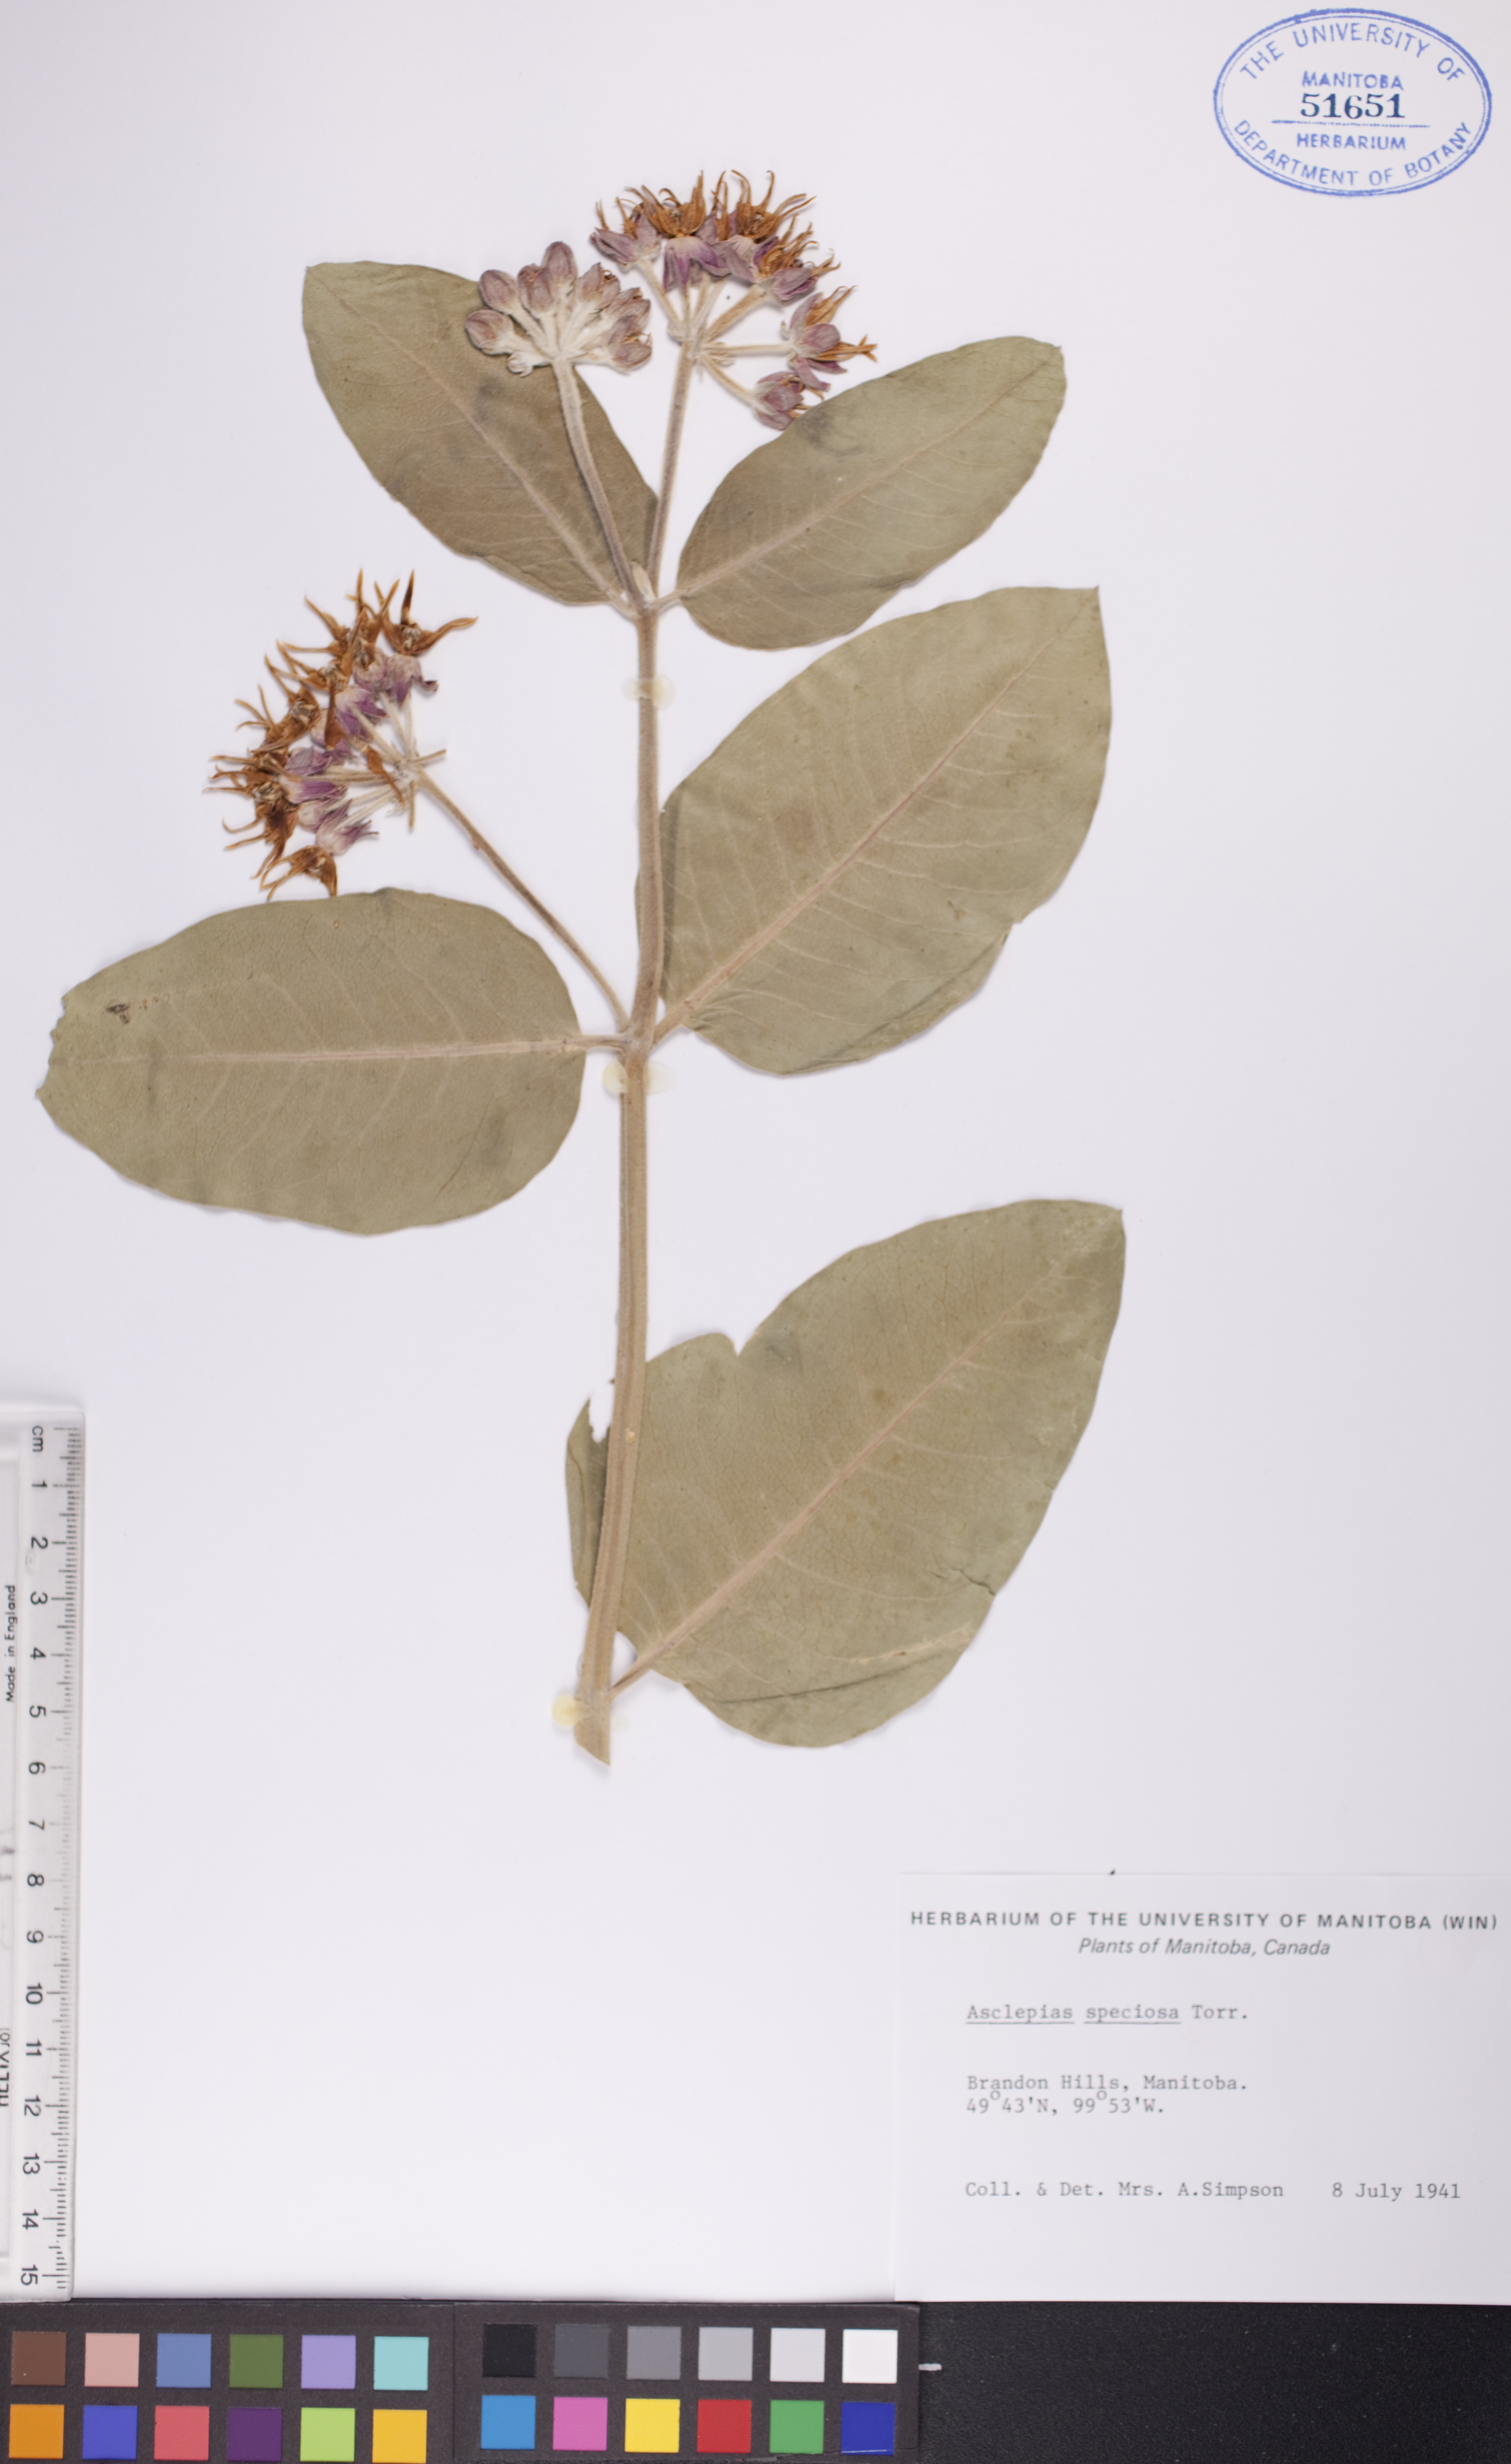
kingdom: Plantae
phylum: Tracheophyta
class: Magnoliopsida
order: Gentianales
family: Apocynaceae
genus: Asclepias
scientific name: Asclepias speciosa
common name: Showy milkweed
